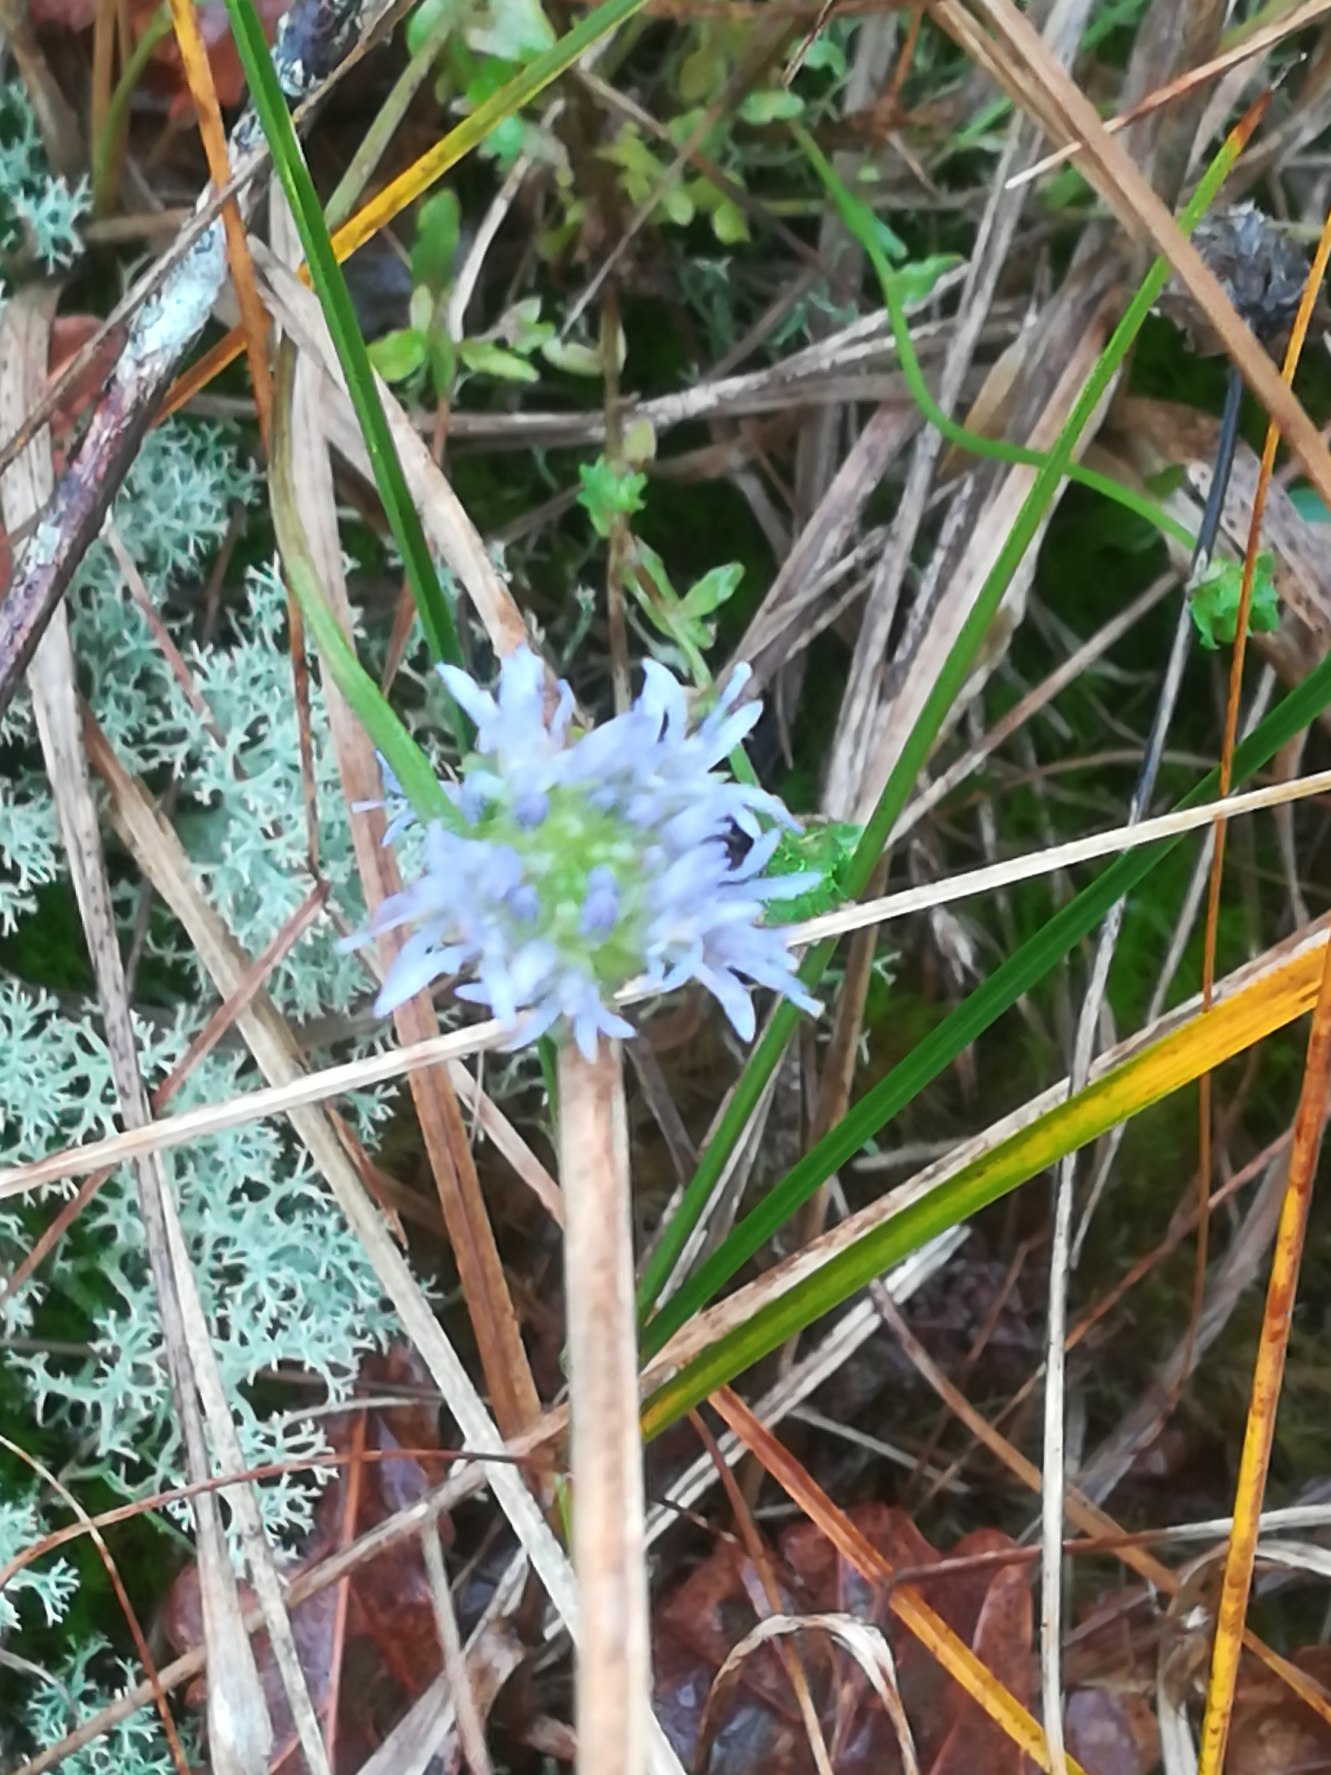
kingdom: Plantae
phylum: Tracheophyta
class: Magnoliopsida
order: Asterales
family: Campanulaceae
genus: Jasione
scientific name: Jasione montana
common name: Blåmunke
